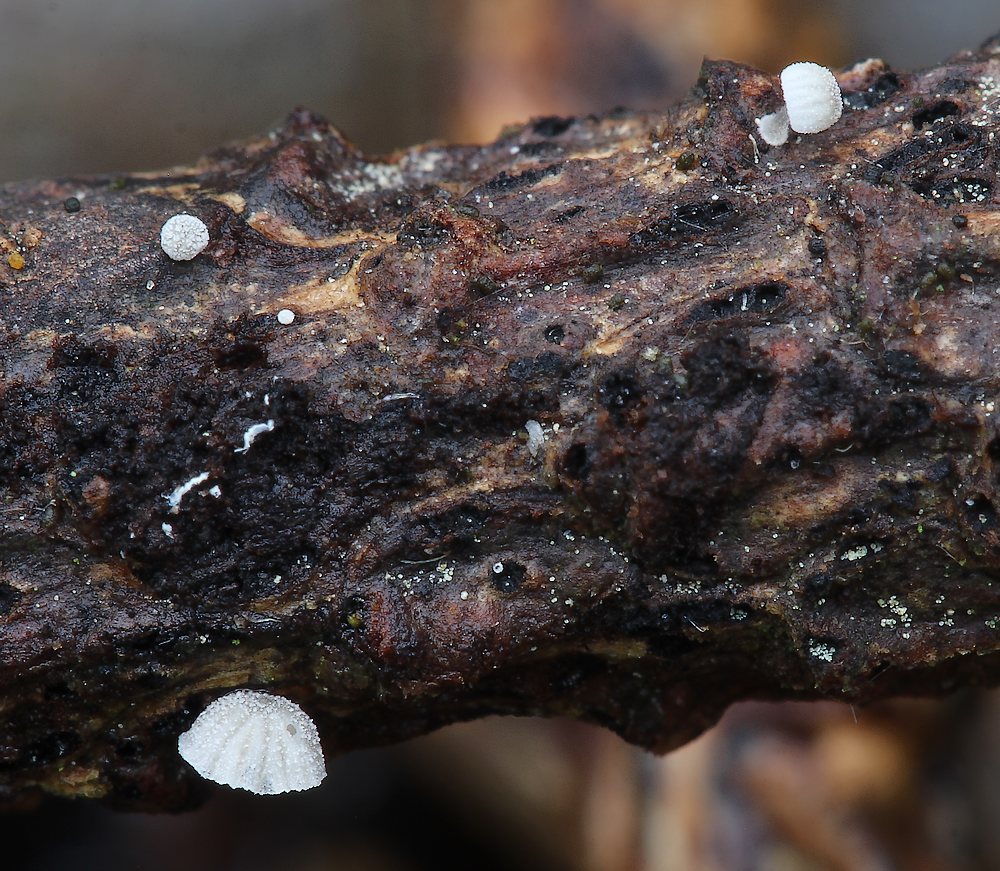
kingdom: Fungi
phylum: Basidiomycota
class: Agaricomycetes
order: Agaricales
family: Mycenaceae
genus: Mycena
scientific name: Mycena tenerrima
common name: pudret huesvamp
